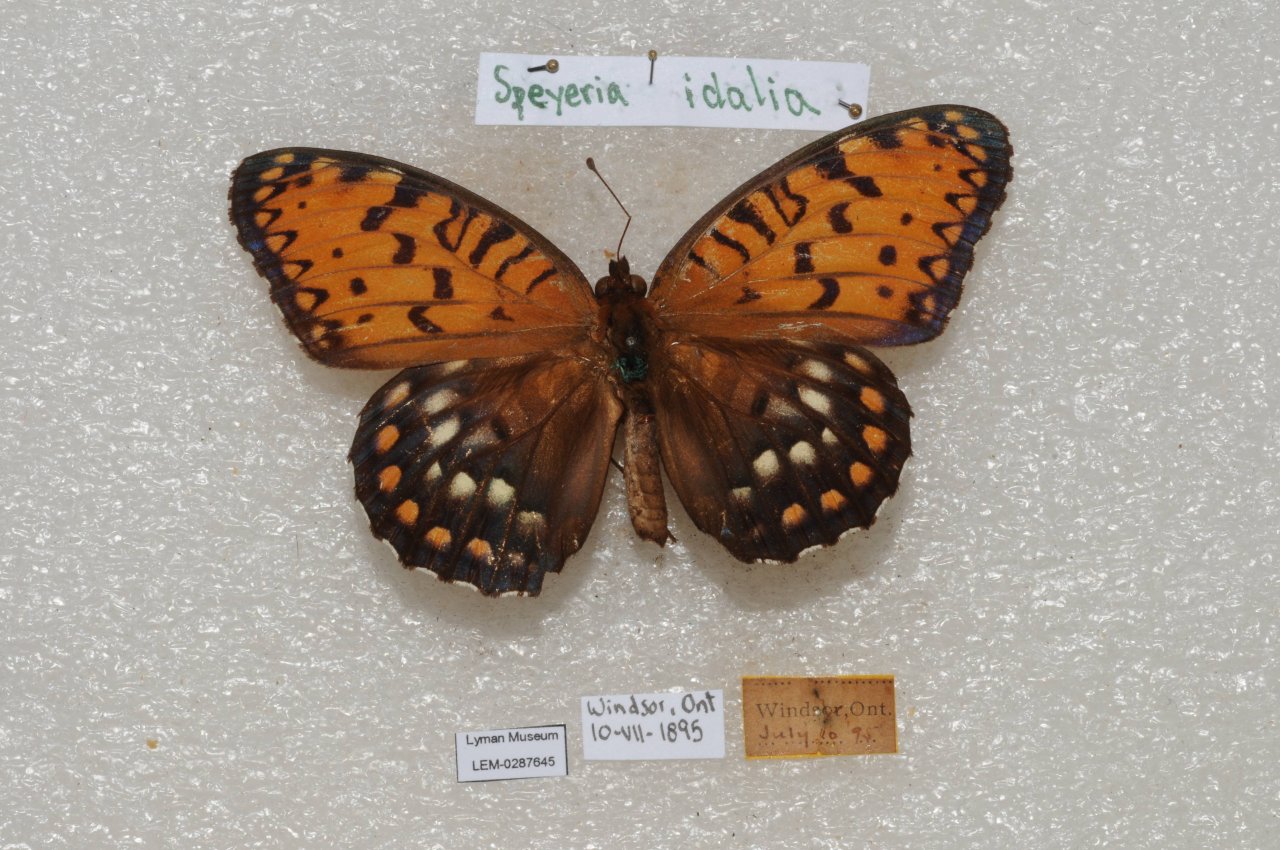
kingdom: Animalia
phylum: Arthropoda
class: Insecta
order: Lepidoptera
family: Nymphalidae
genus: Speyeria
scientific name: Speyeria idalia
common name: Regal Fritillary
